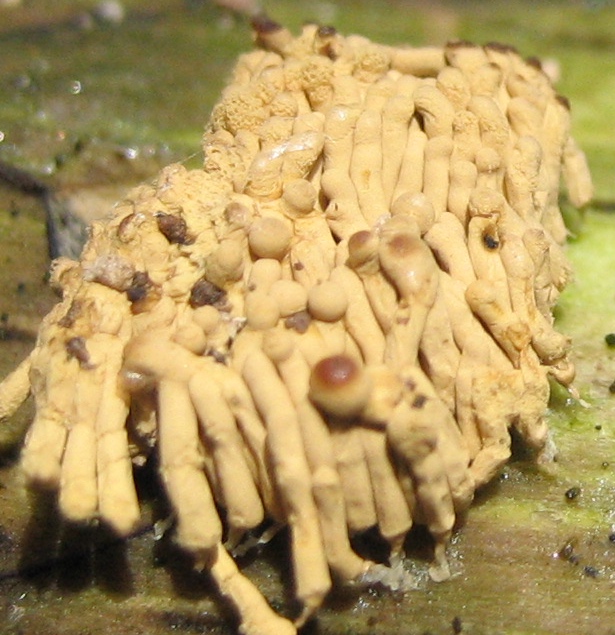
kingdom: Protozoa
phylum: Mycetozoa
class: Myxomycetes
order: Trichiales
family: Arcyriaceae
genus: Arcyria
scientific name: Arcyria obvelata
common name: okkergul skålsvøb
